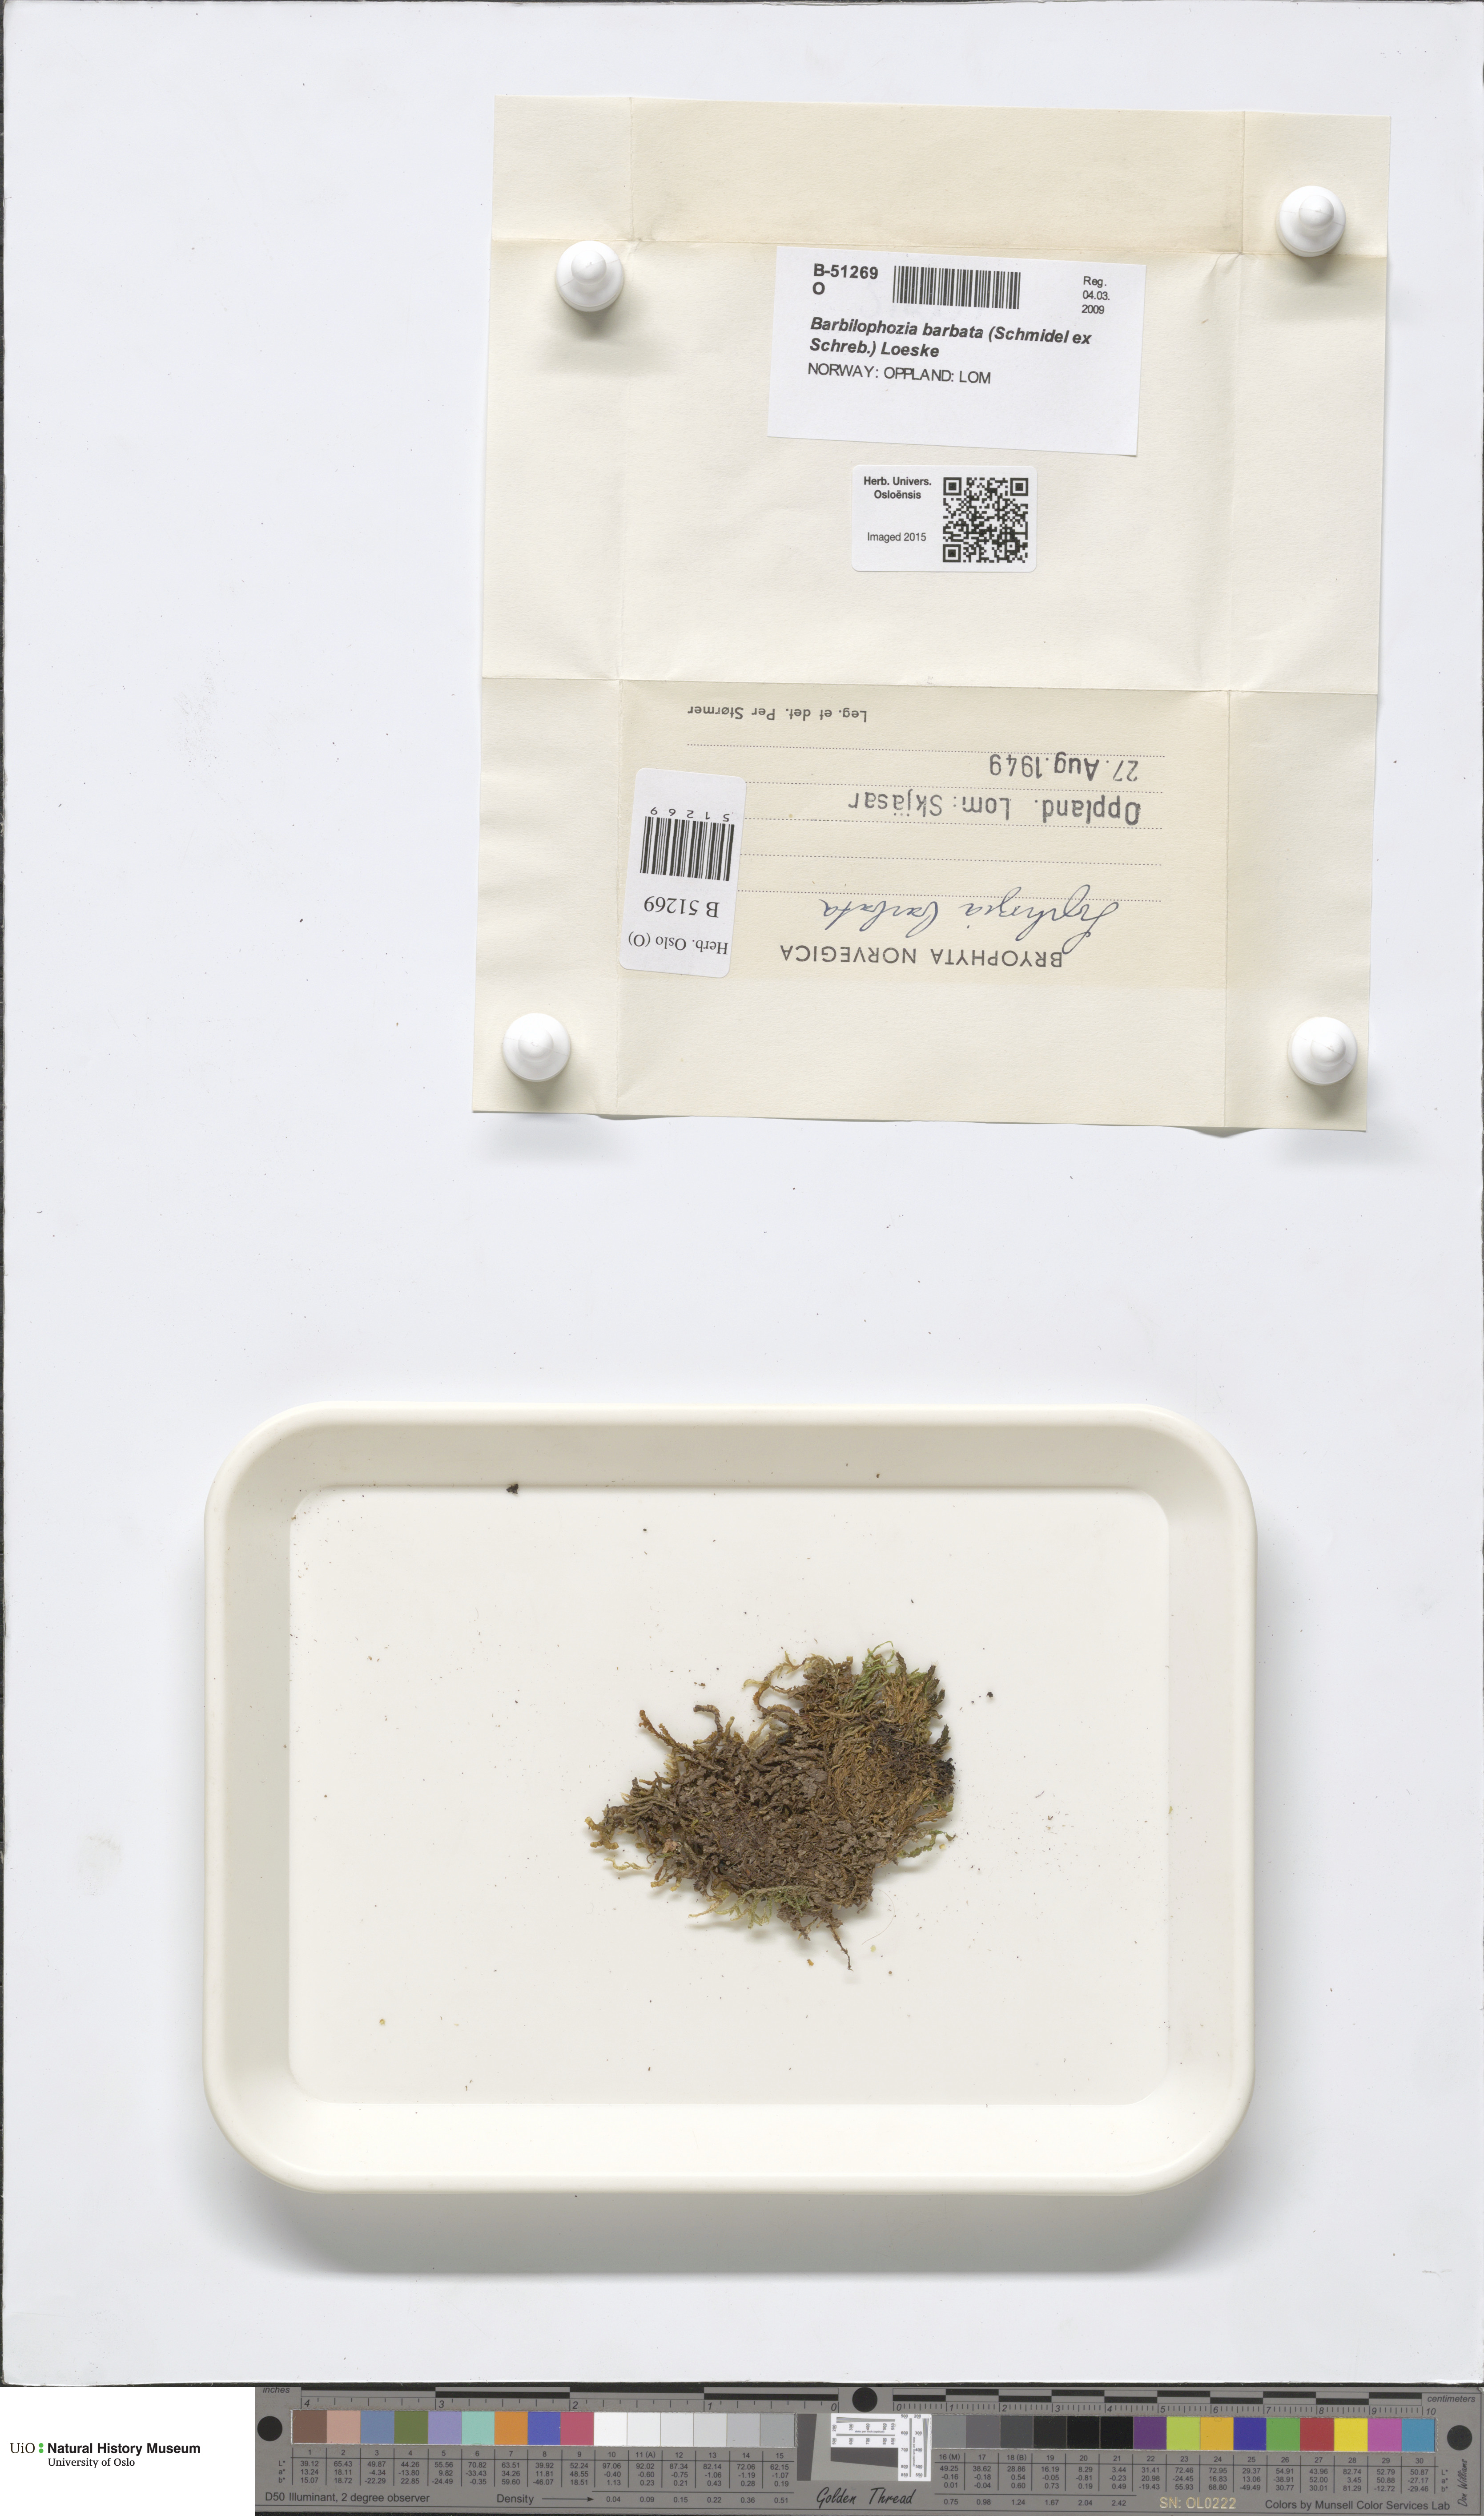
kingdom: Plantae
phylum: Marchantiophyta
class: Jungermanniopsida
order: Jungermanniales
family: Anastrophyllaceae
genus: Barbilophozia
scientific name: Barbilophozia barbata
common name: Bearded pawwort
